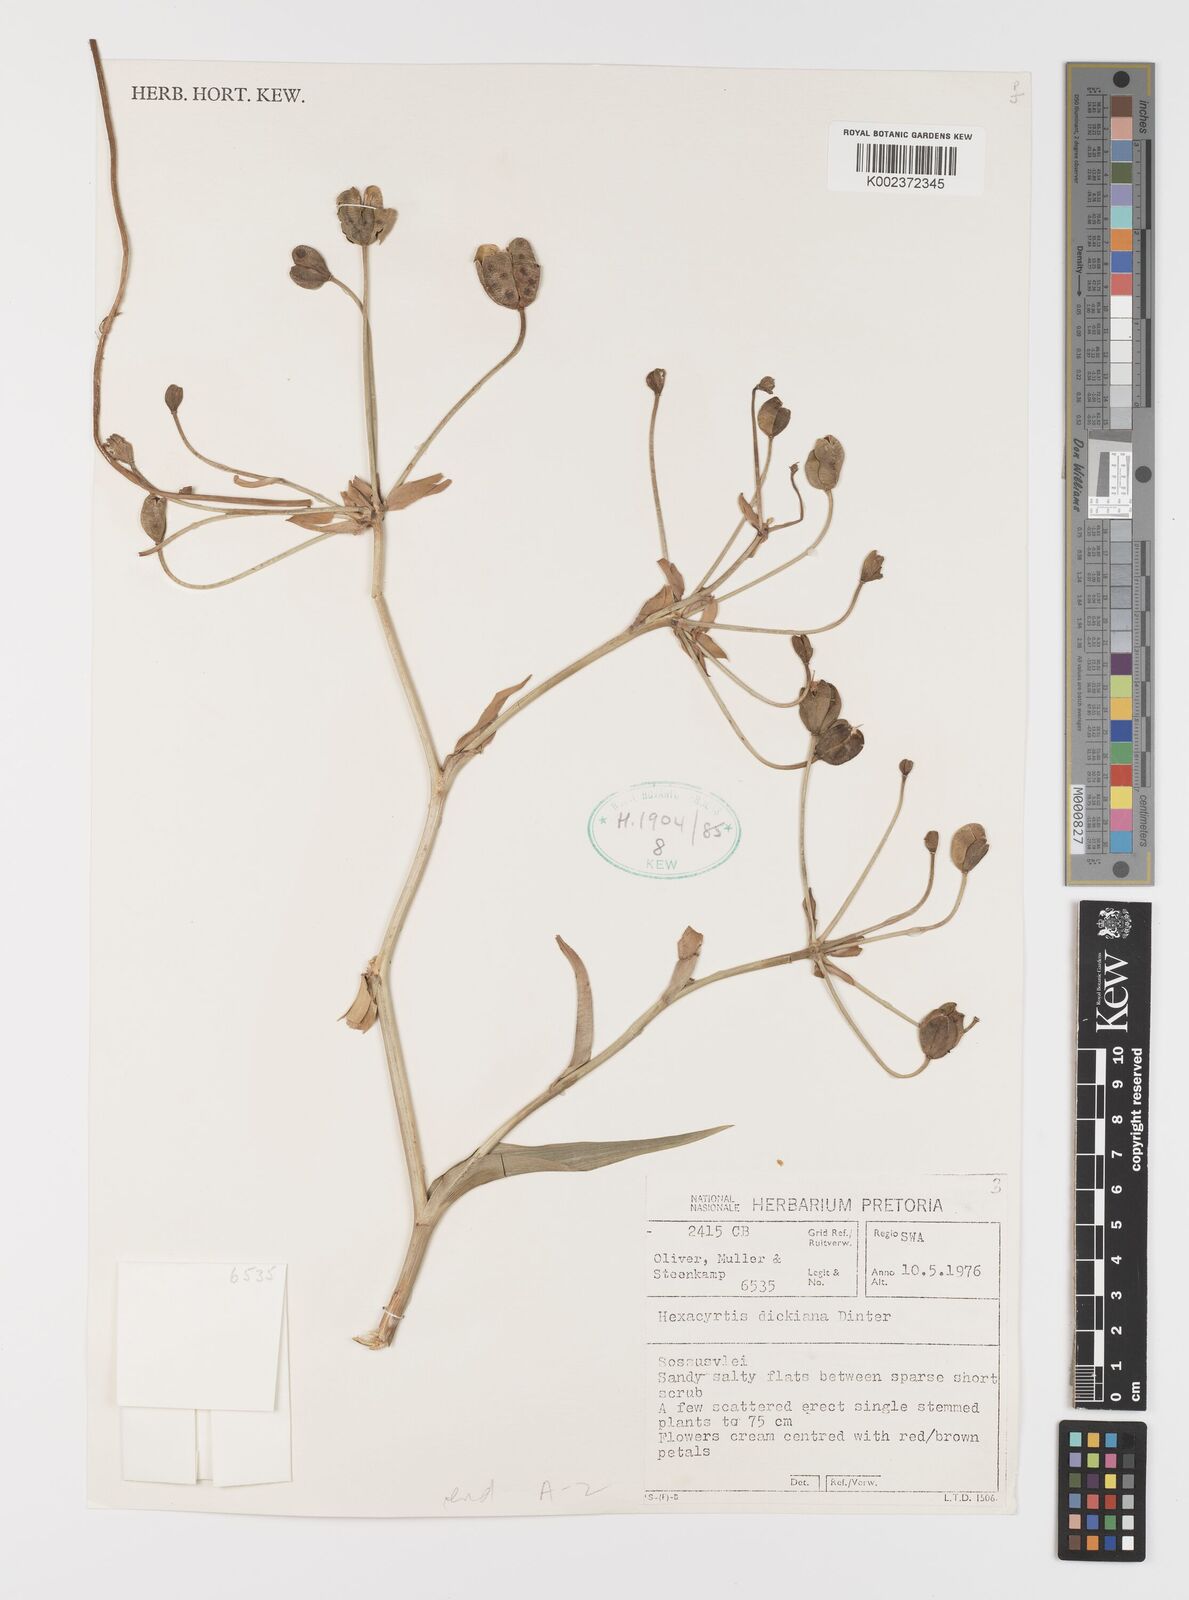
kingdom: Plantae
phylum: Tracheophyta
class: Liliopsida
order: Liliales
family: Colchicaceae
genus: Hexacyrtis
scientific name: Hexacyrtis dickiana
